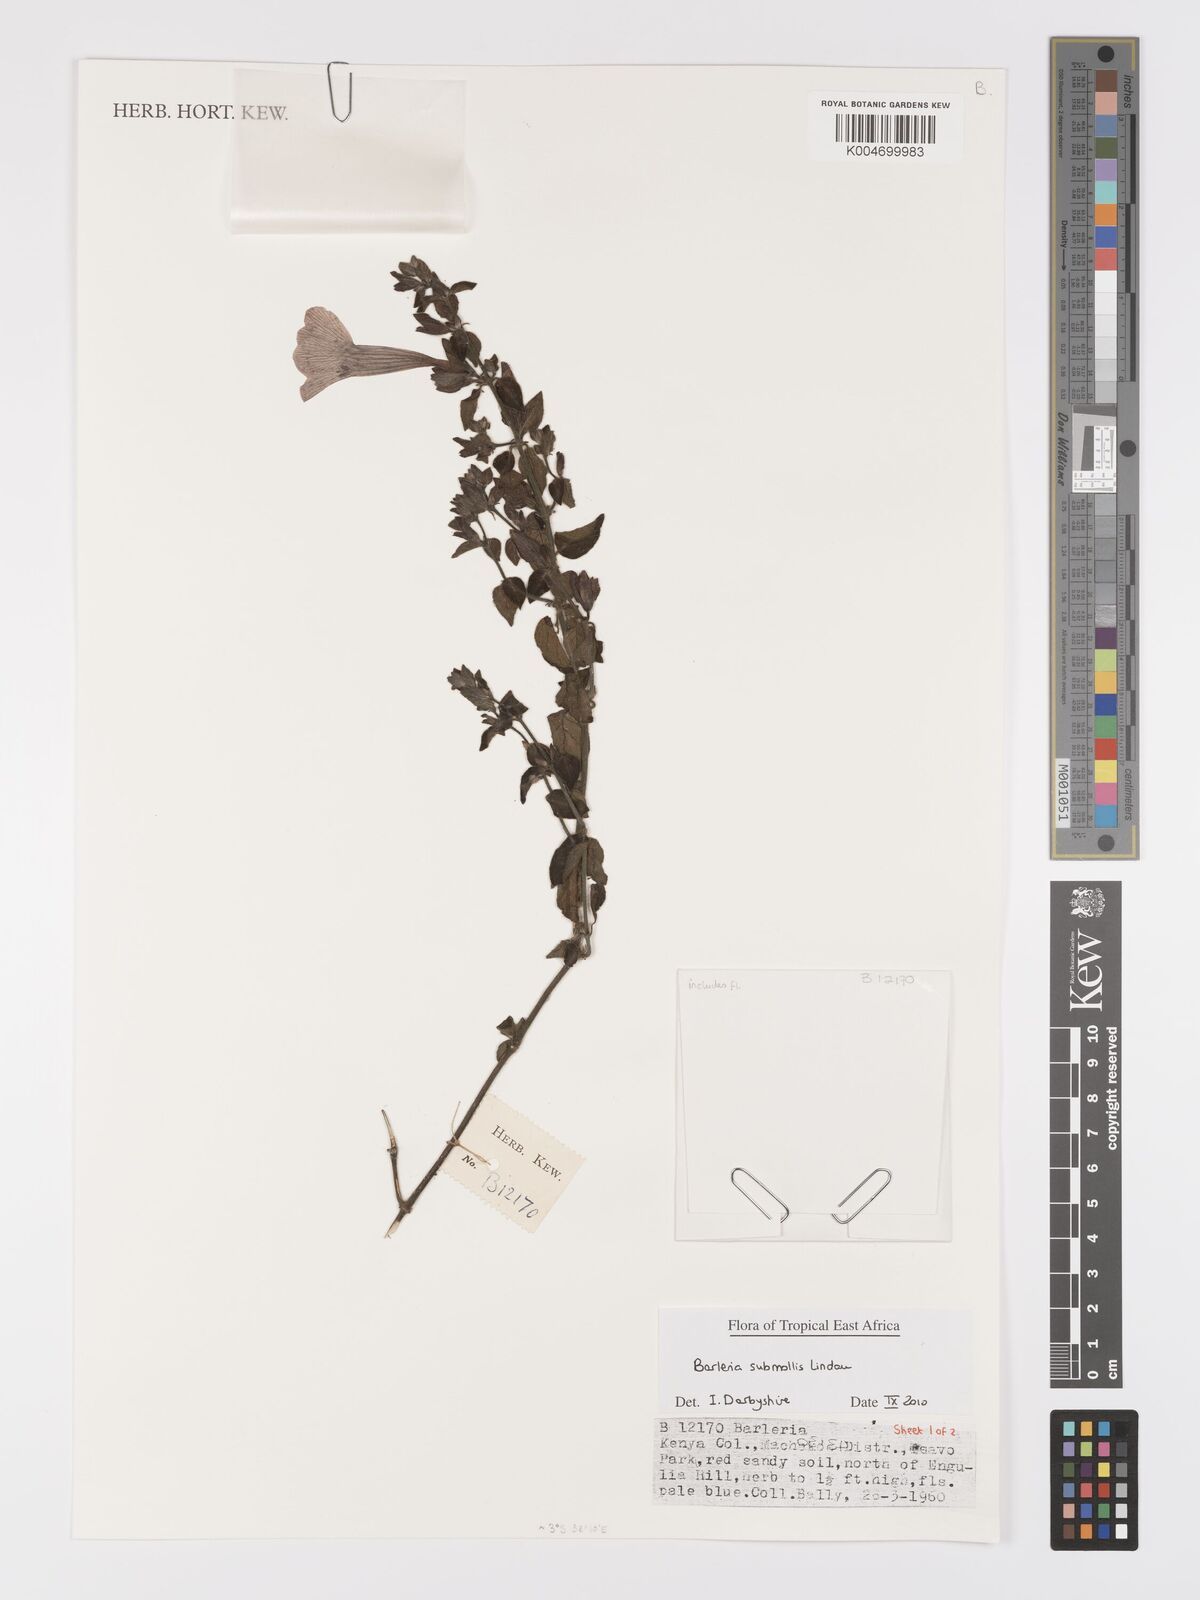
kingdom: Plantae
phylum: Tracheophyta
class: Magnoliopsida
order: Lamiales
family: Acanthaceae
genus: Barleria
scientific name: Barleria submollis
